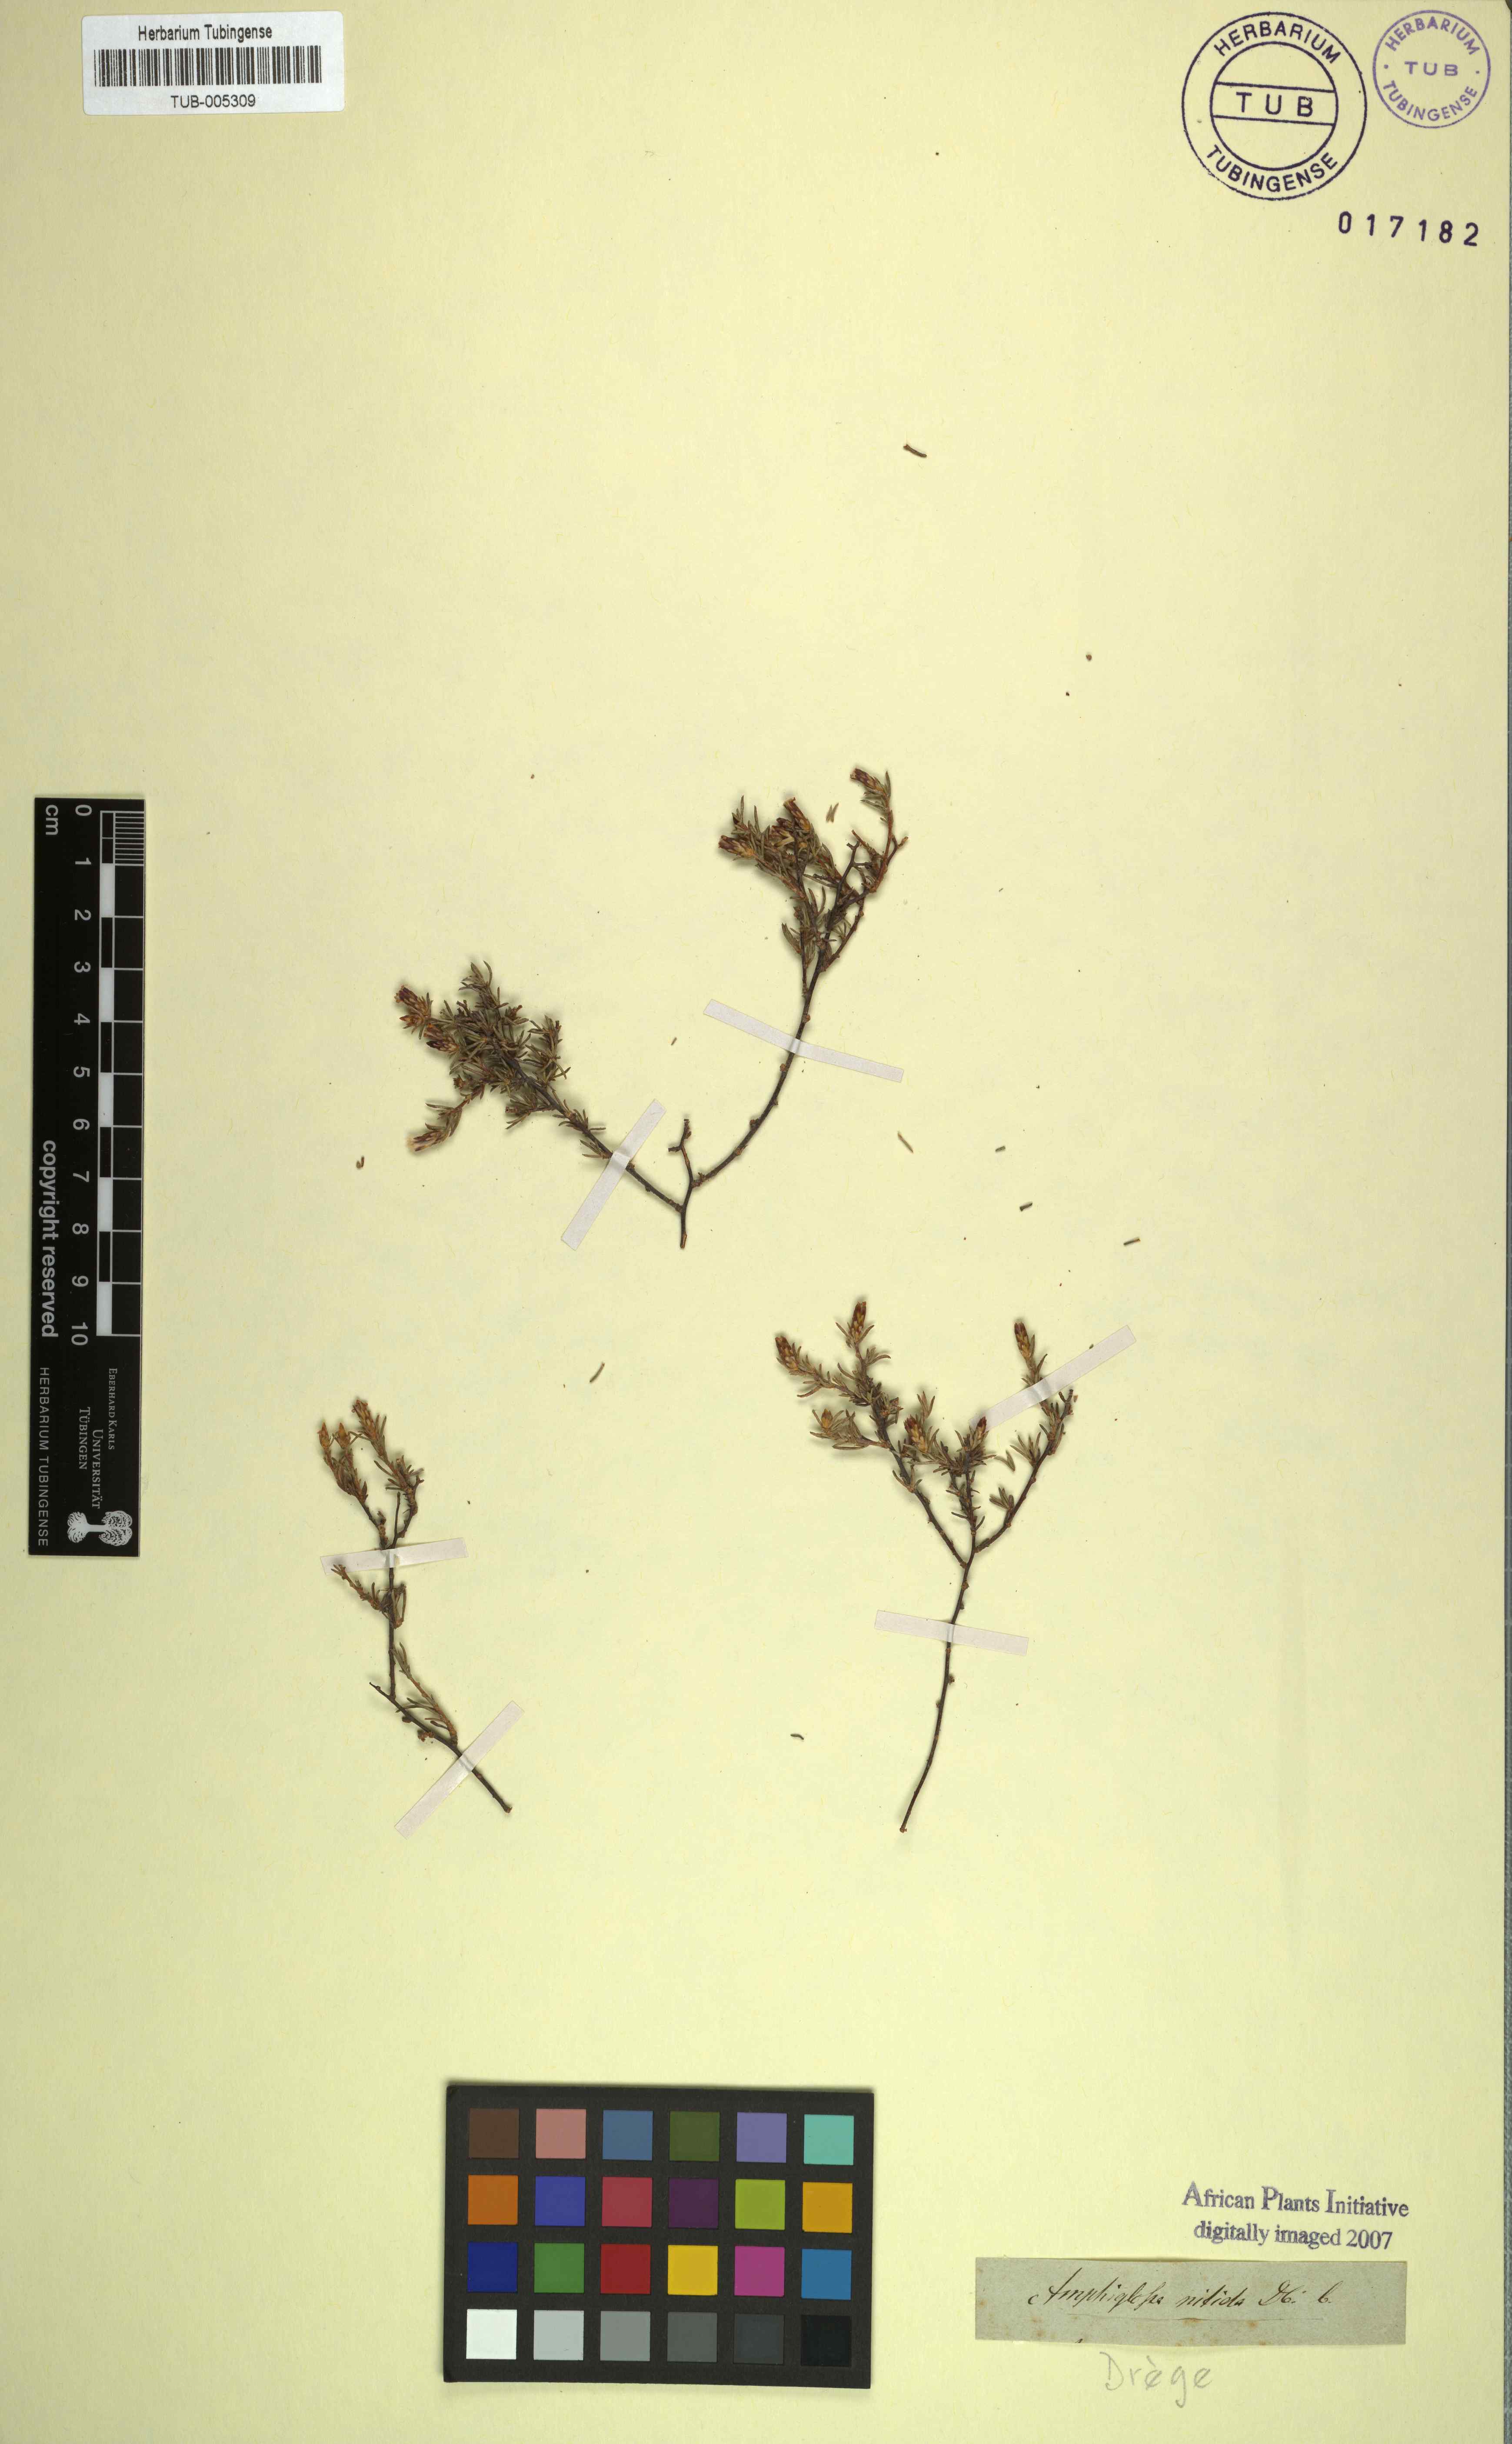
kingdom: Plantae
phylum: Tracheophyta
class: Magnoliopsida
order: Asterales
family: Asteraceae
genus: Amphiglossa
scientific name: Amphiglossa tomentosa
